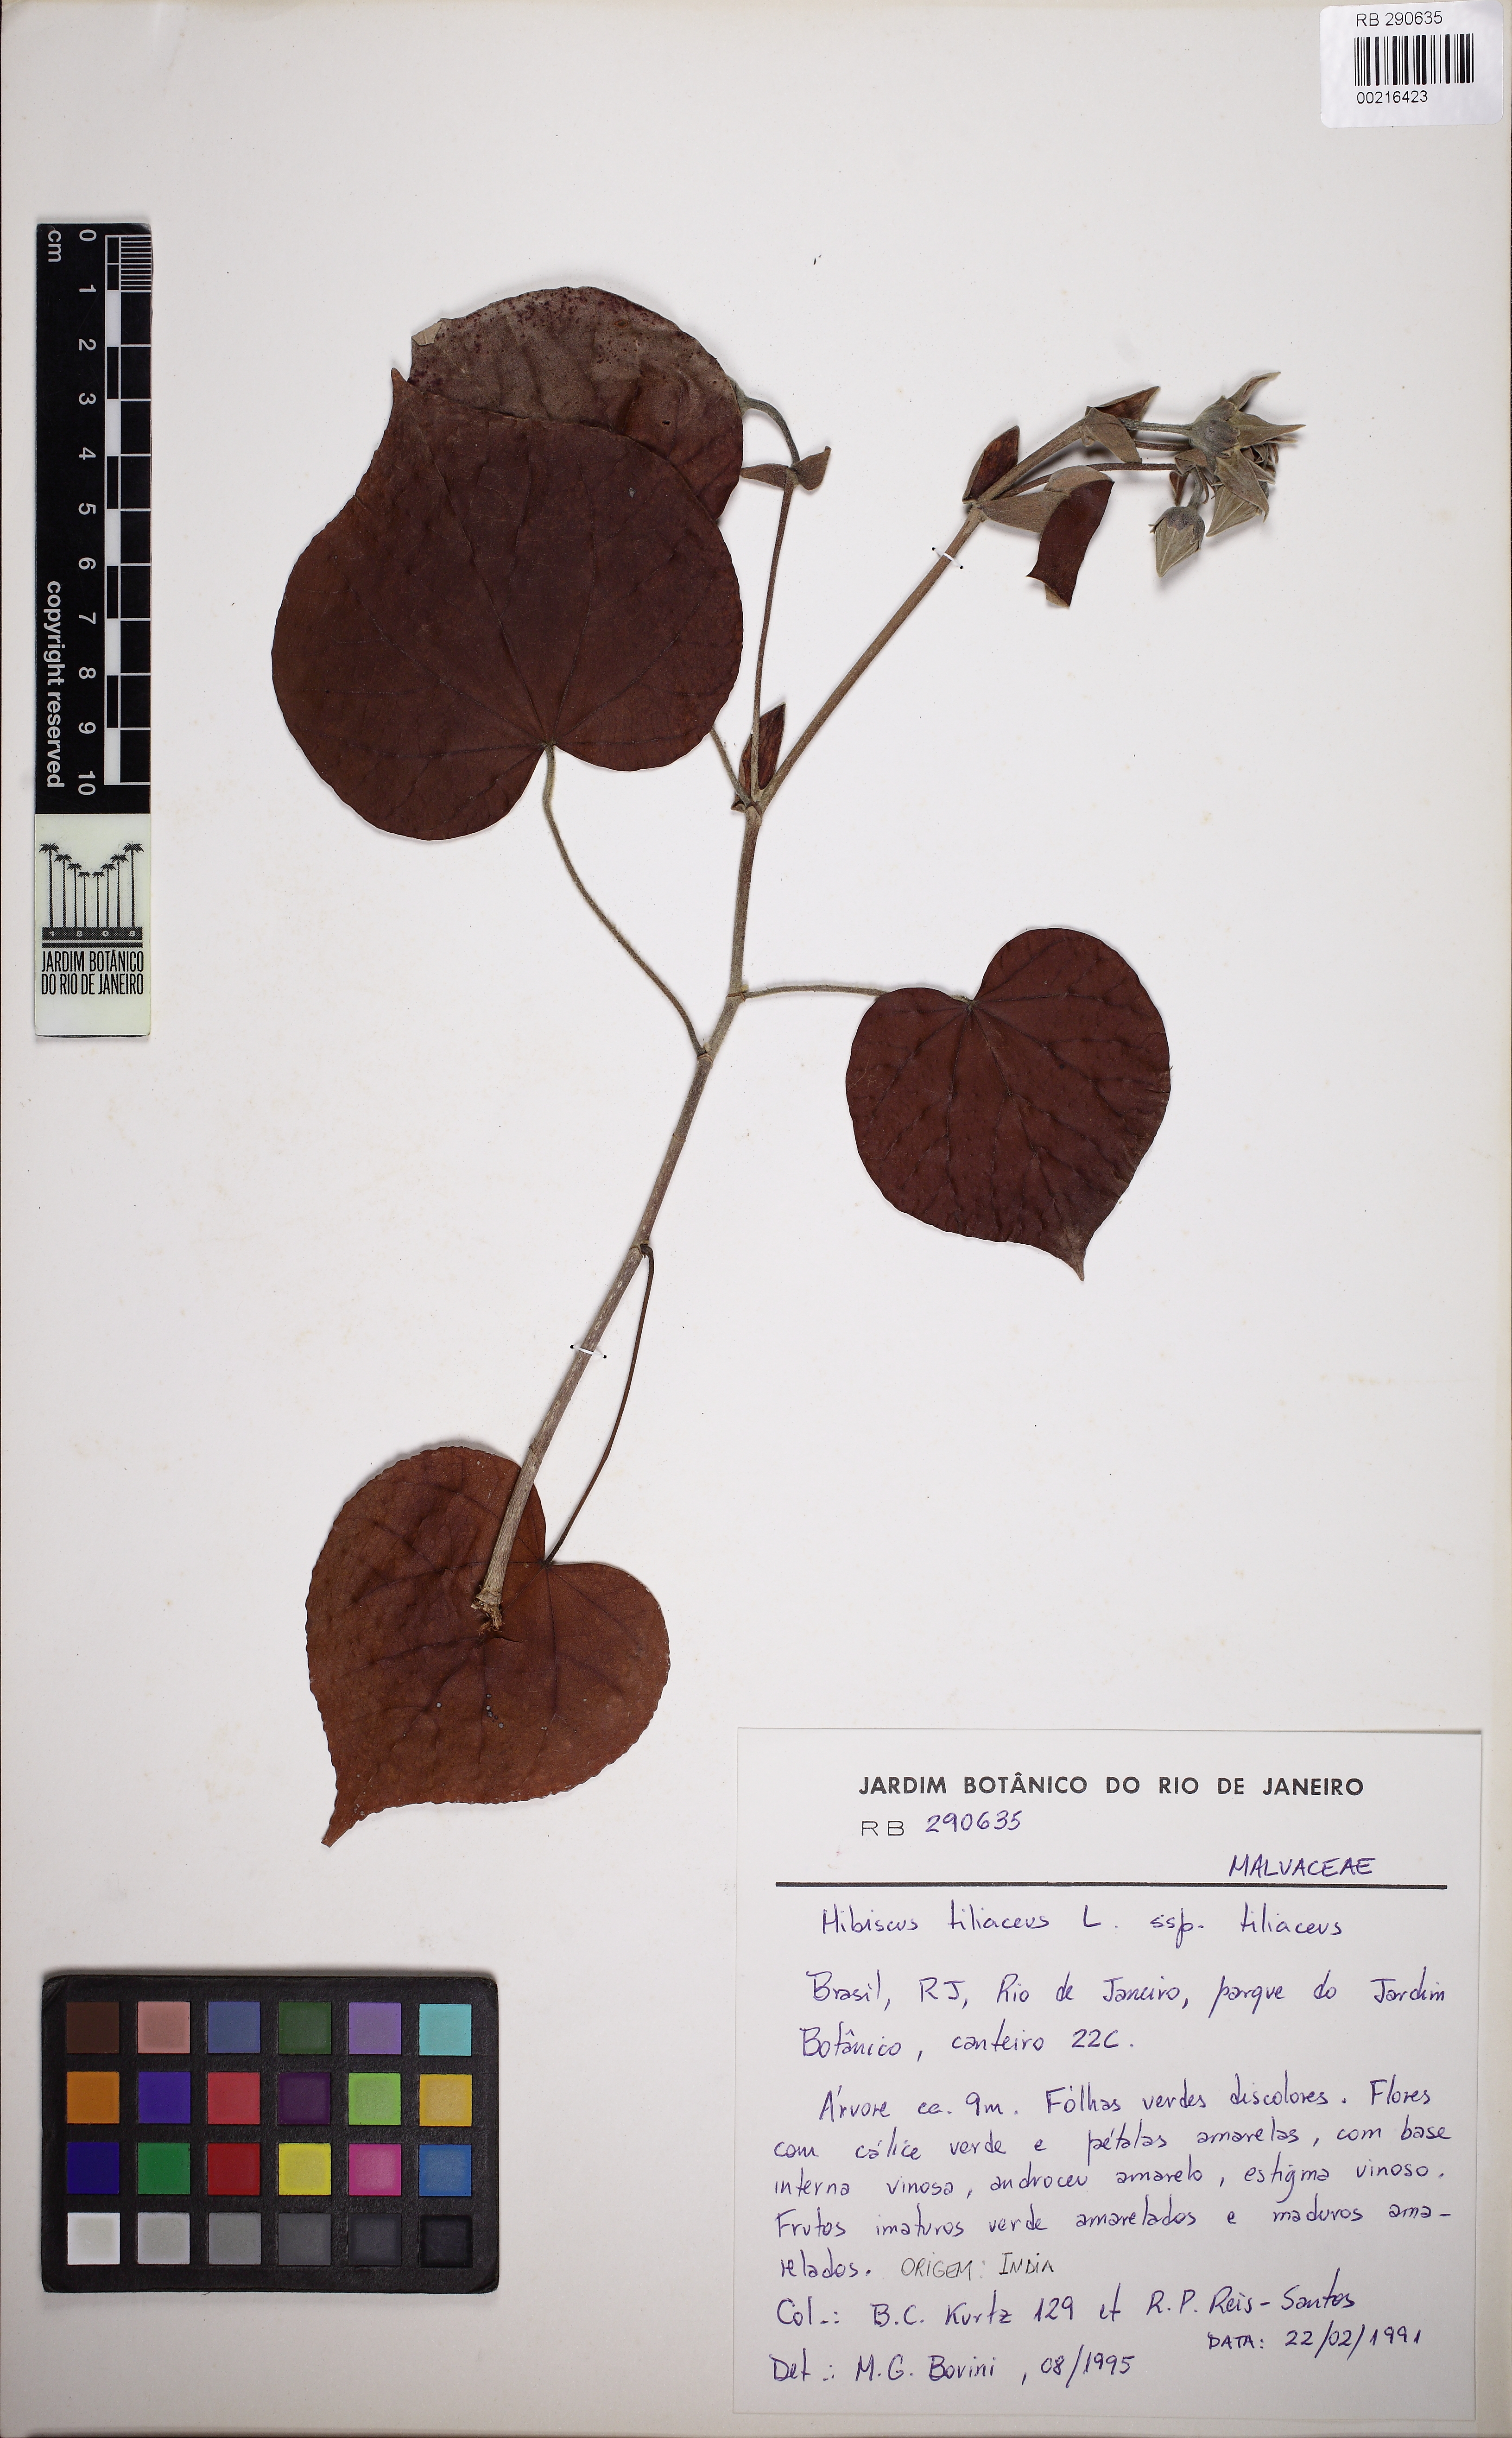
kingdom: Plantae
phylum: Tracheophyta
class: Magnoliopsida
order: Malvales
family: Malvaceae
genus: Talipariti
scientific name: Talipariti tiliaceum
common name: Sea hibiscus
